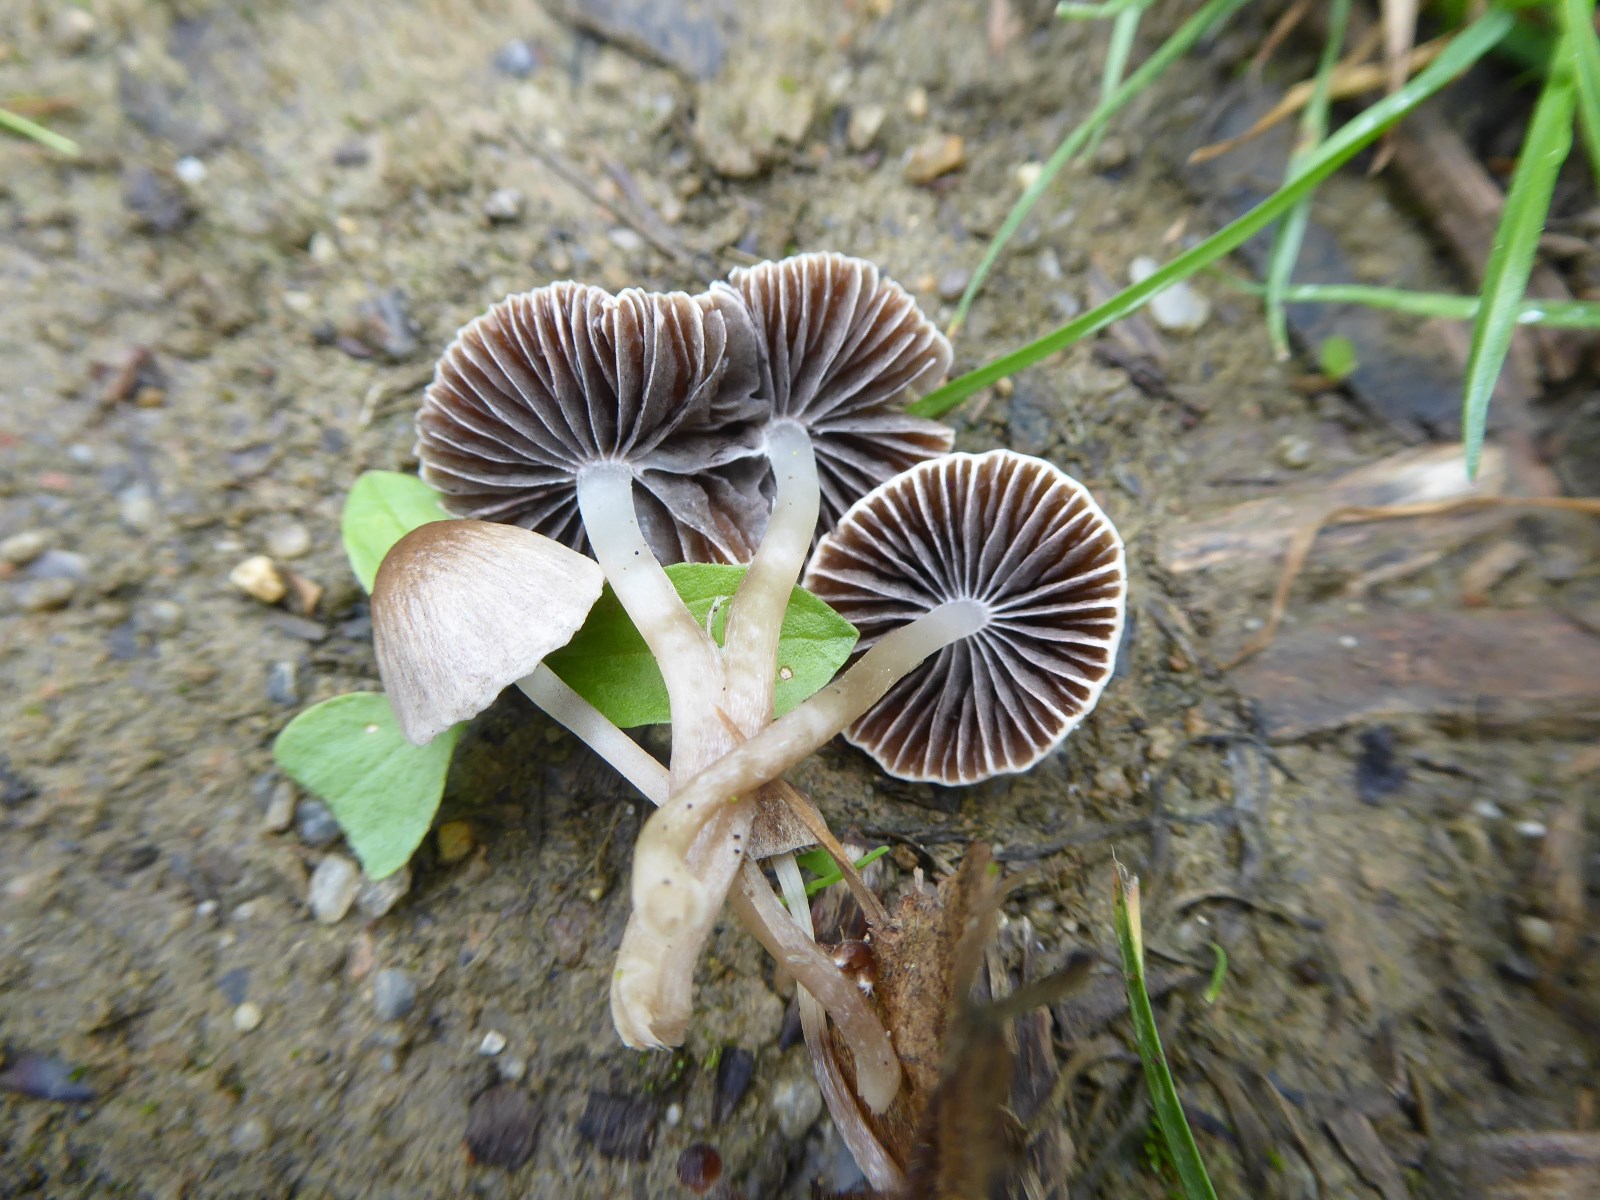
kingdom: Fungi
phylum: Basidiomycota
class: Agaricomycetes
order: Agaricales
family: Psathyrellaceae
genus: Psathyrella
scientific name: Psathyrella
